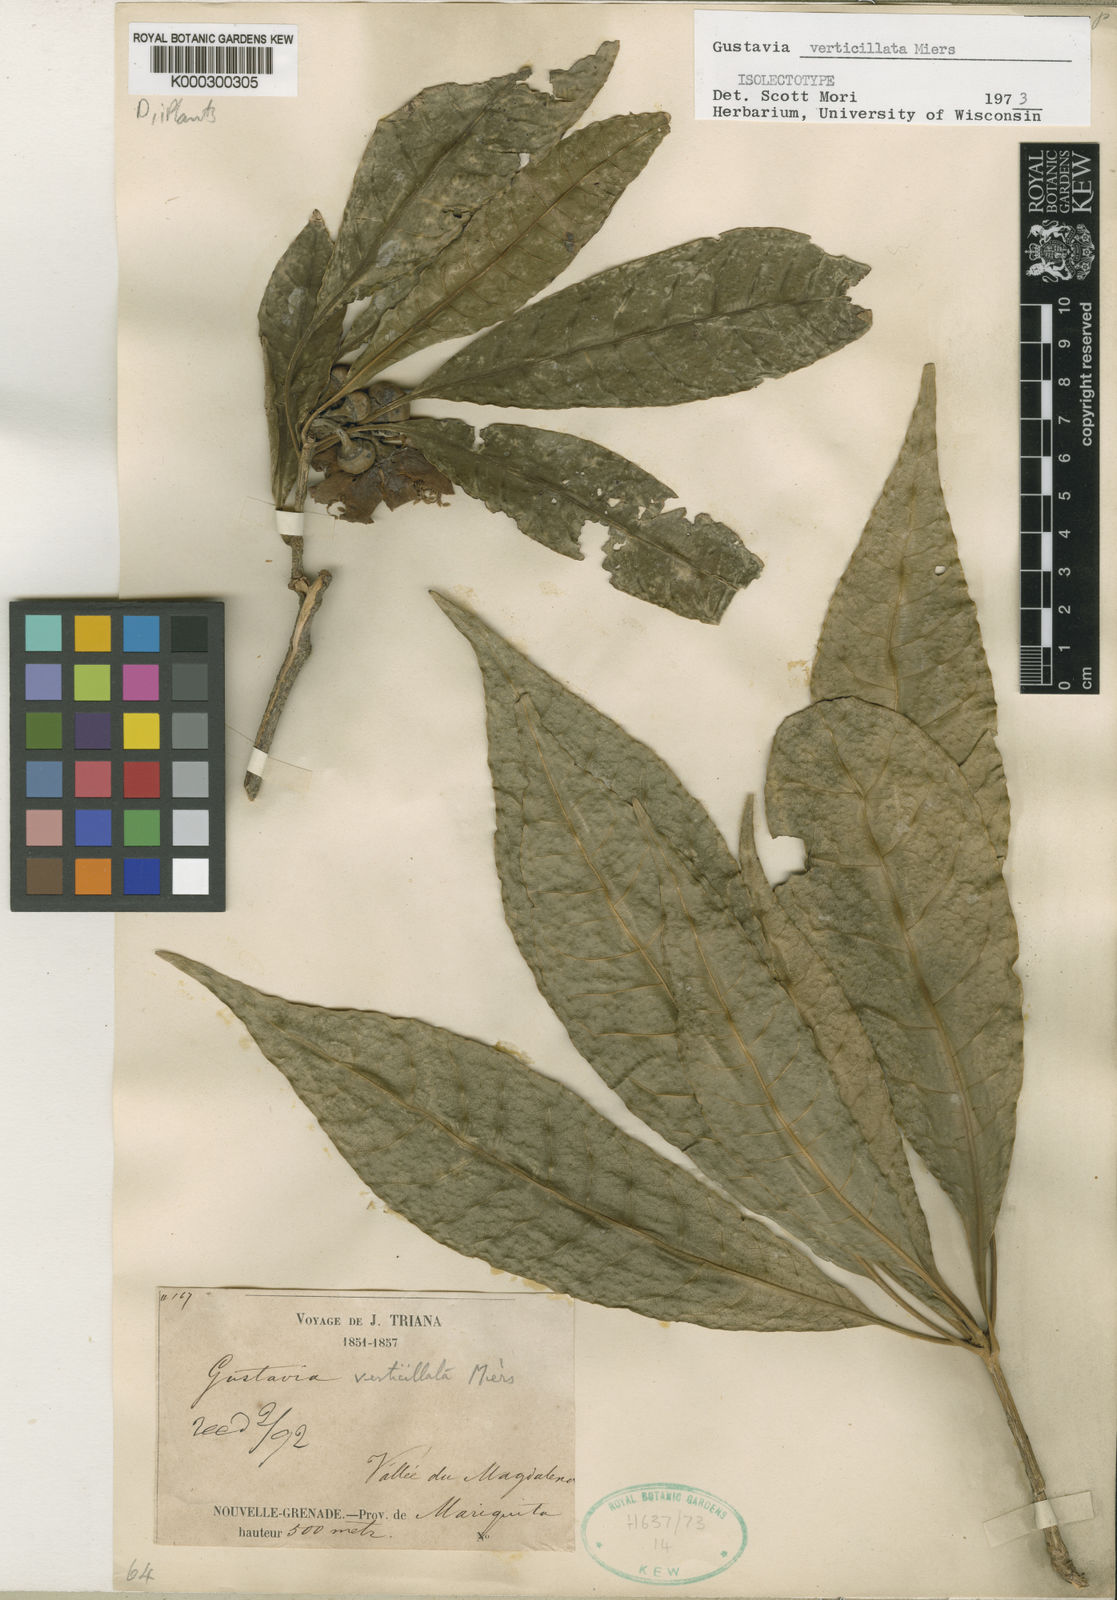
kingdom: Plantae
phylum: Tracheophyta
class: Magnoliopsida
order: Ericales
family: Lecythidaceae
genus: Gustavia
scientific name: Gustavia verticillata
